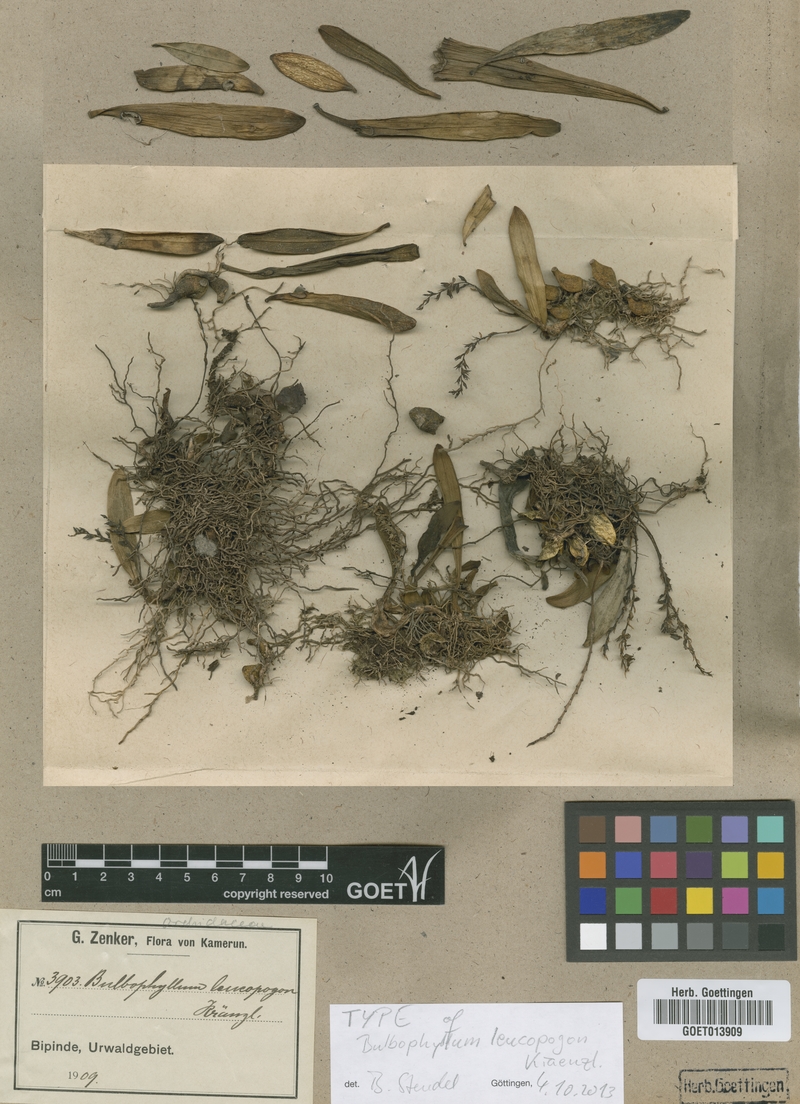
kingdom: Plantae
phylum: Tracheophyta
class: Liliopsida
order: Asparagales
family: Orchidaceae
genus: Bulbophyllum
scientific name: Bulbophyllum pumilum
